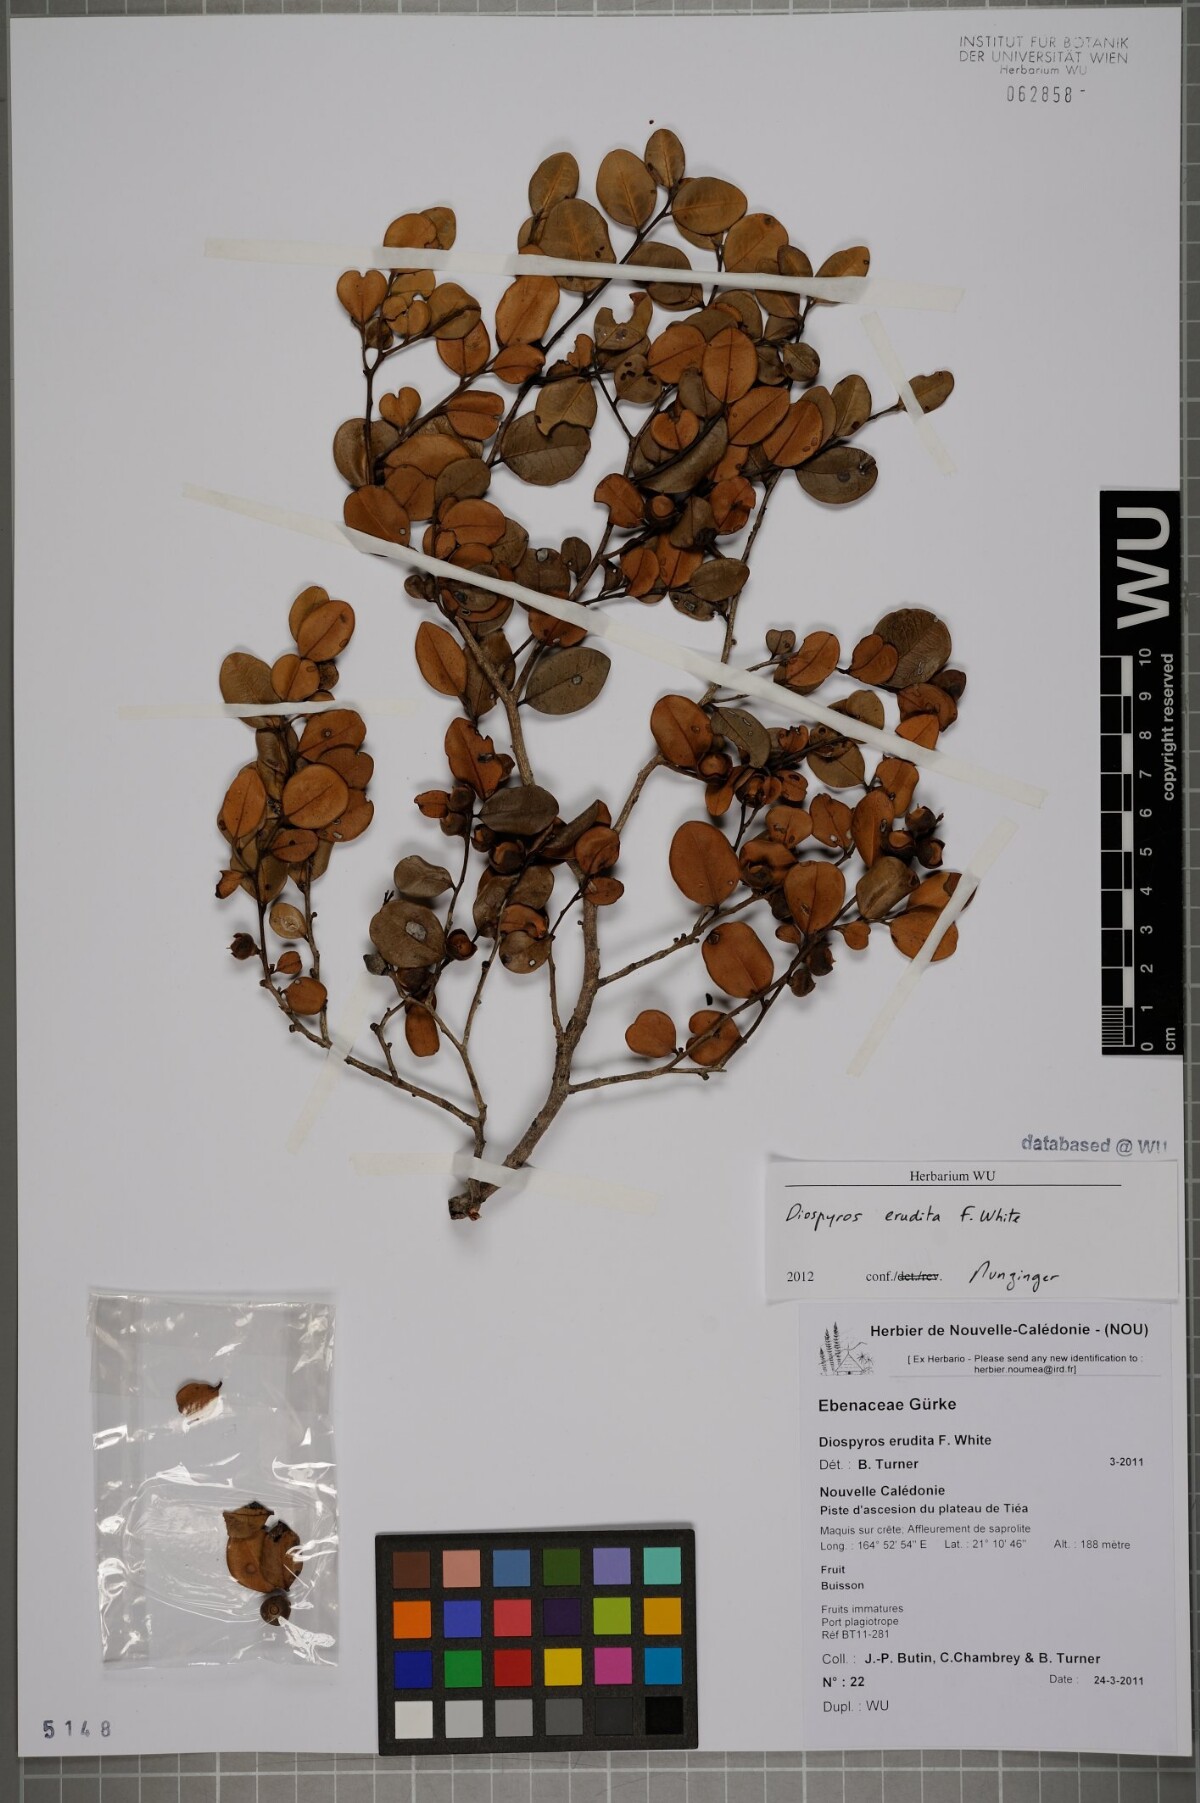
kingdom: Plantae
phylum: Tracheophyta
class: Magnoliopsida
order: Ericales
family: Ebenaceae
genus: Diospyros
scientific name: Diospyros revolutissima
